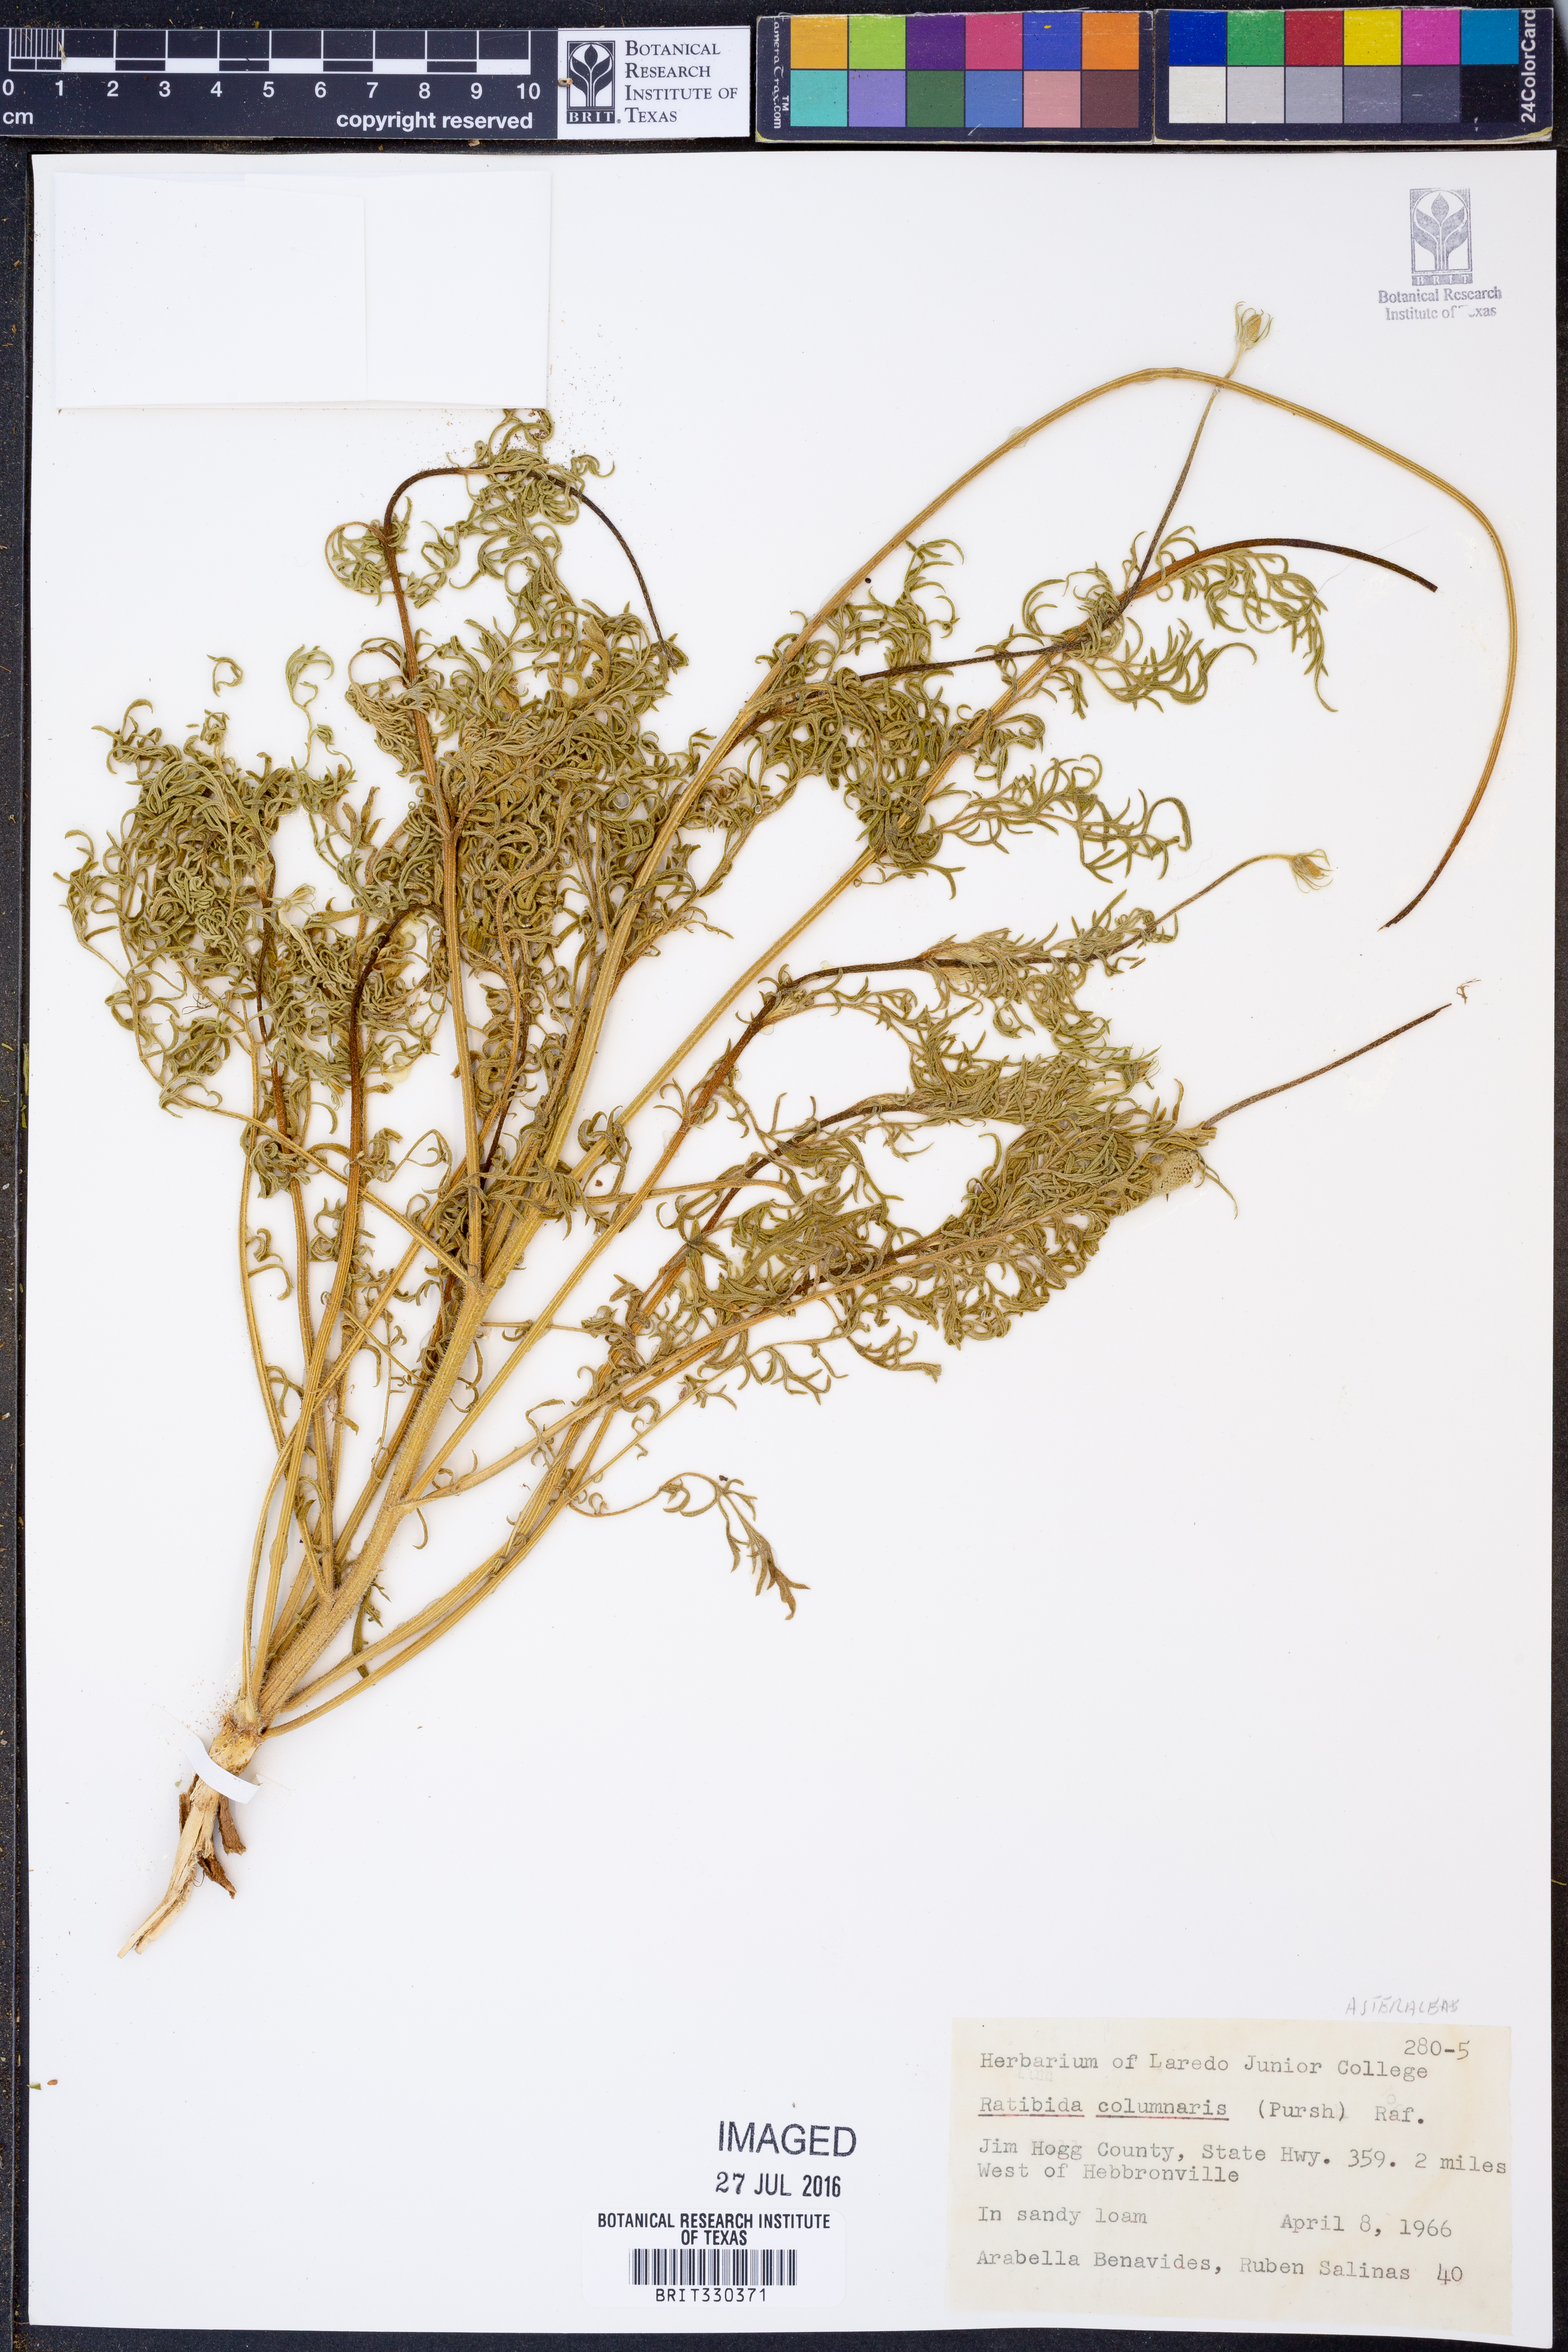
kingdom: Plantae
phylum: Tracheophyta
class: Magnoliopsida
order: Asterales
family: Asteraceae
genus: Ratibida
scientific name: Ratibida columnifera
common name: Prairie coneflower
